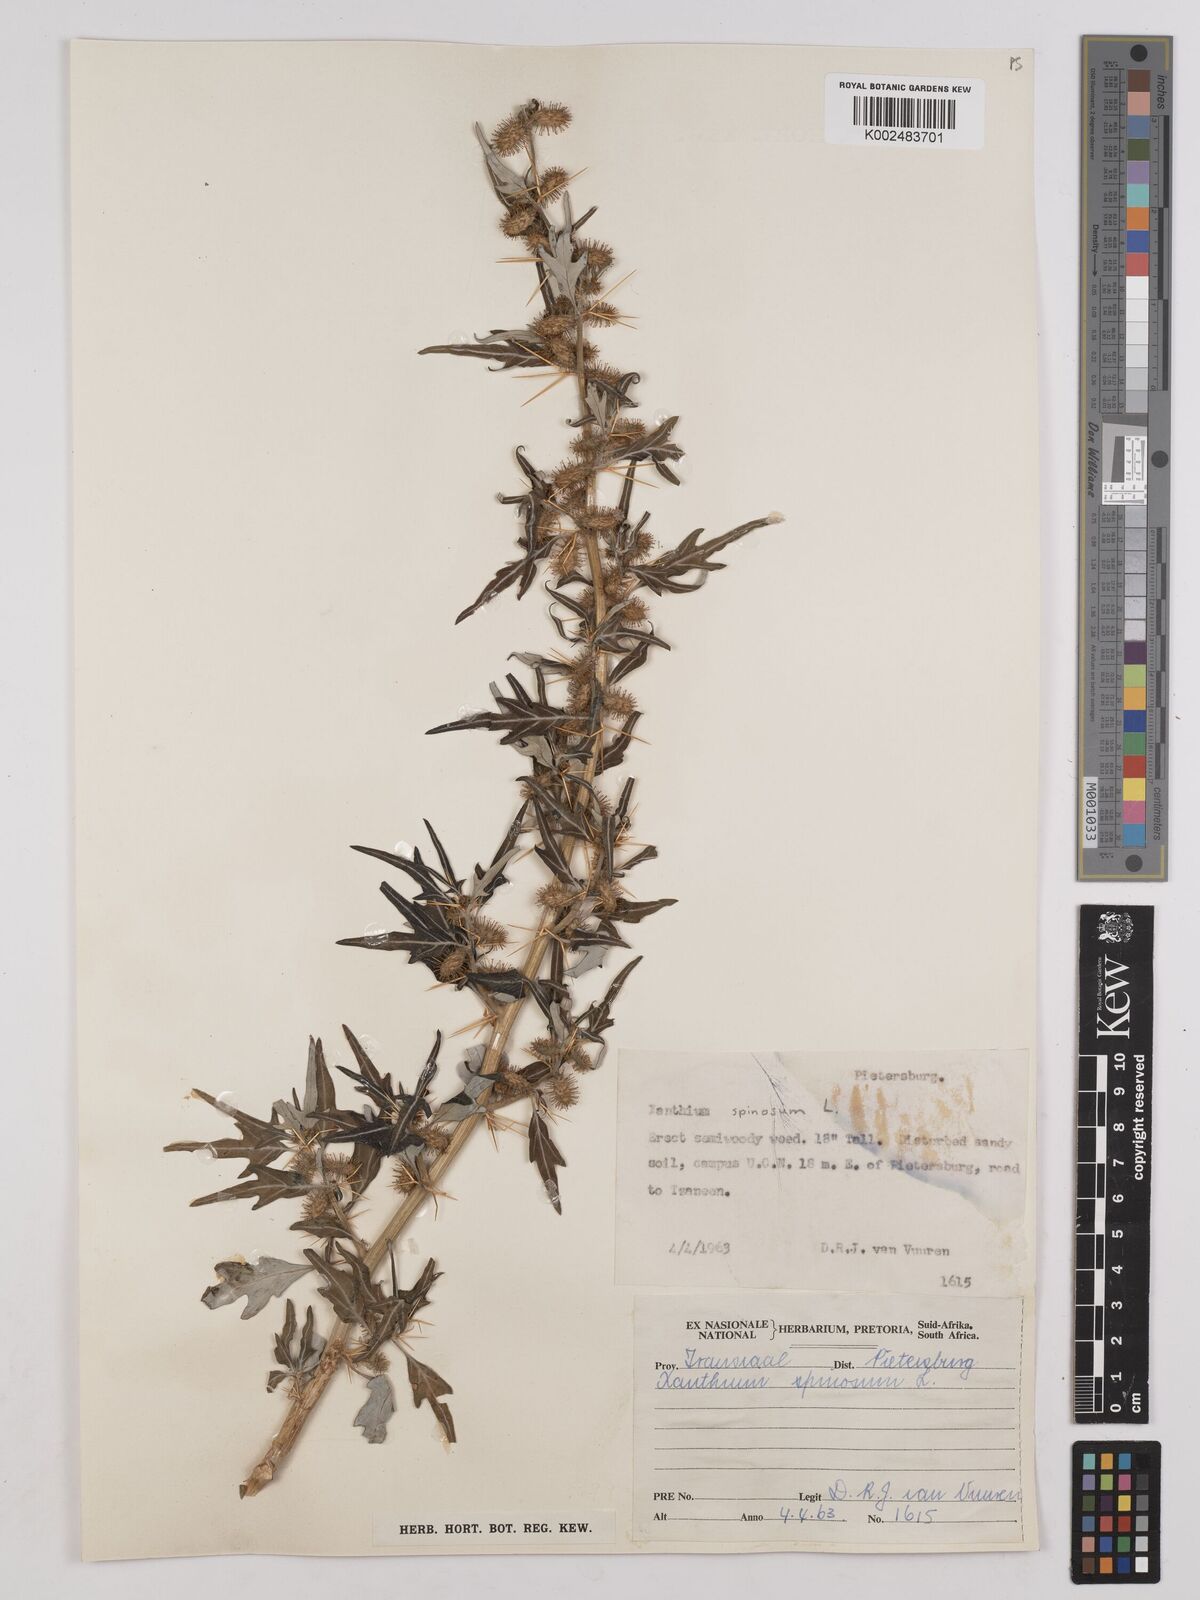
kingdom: Plantae
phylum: Tracheophyta
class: Magnoliopsida
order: Asterales
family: Asteraceae
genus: Xanthium
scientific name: Xanthium spinosum
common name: Spiny cocklebur
